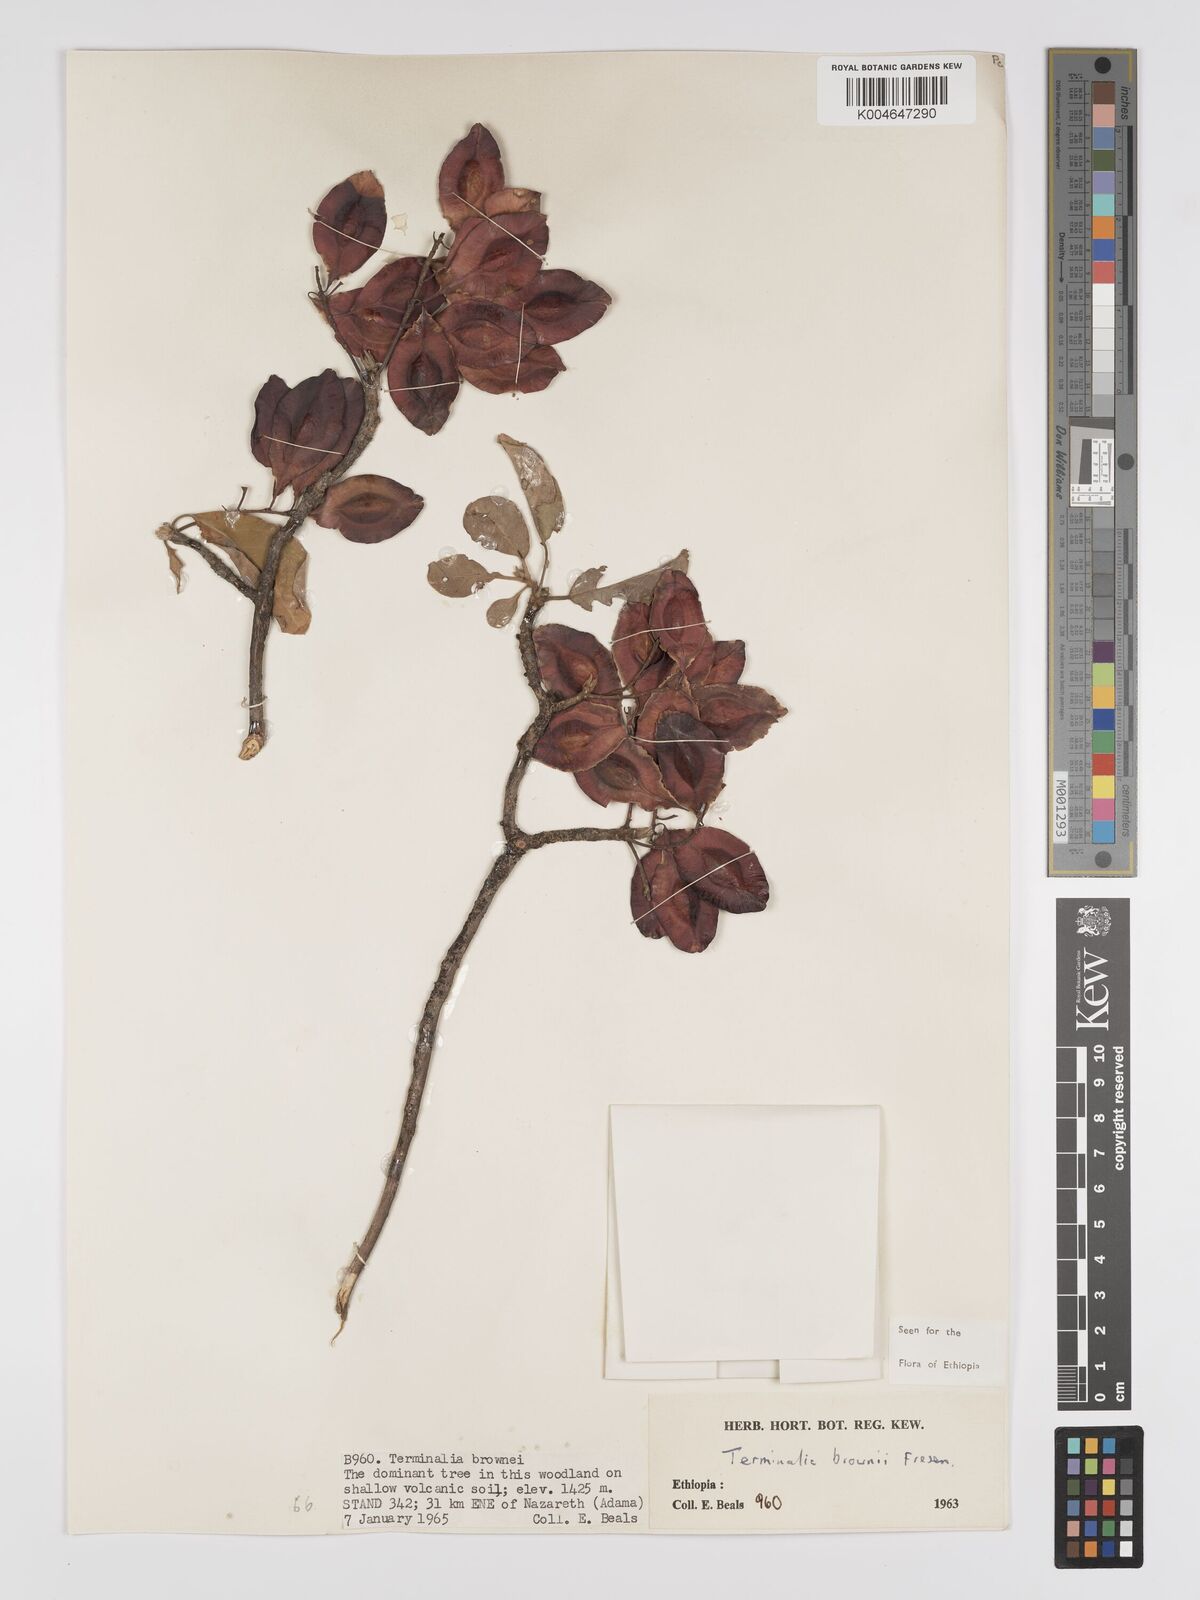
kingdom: Plantae
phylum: Tracheophyta
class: Magnoliopsida
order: Myrtales
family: Combretaceae
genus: Terminalia
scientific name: Terminalia brownii
